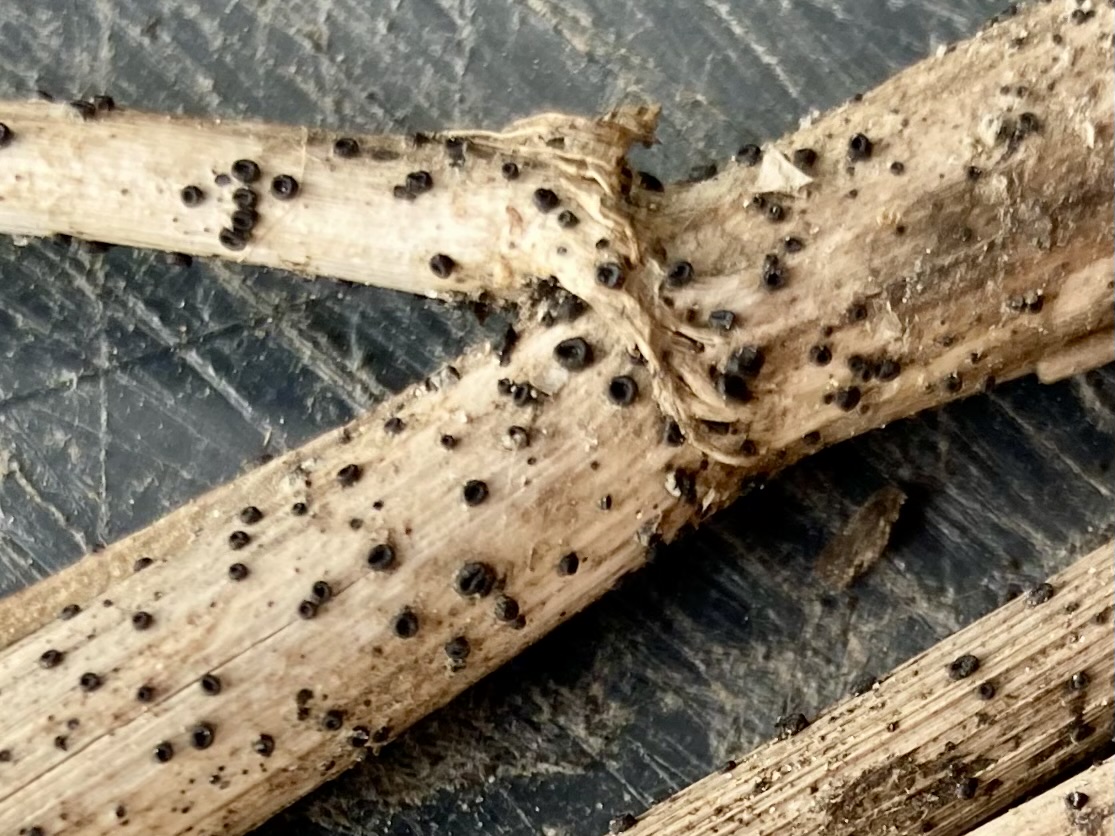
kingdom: Fungi
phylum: Ascomycota
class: Leotiomycetes
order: Helotiales
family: Heterosphaeriaceae
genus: Heterosphaeria
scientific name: Heterosphaeria
